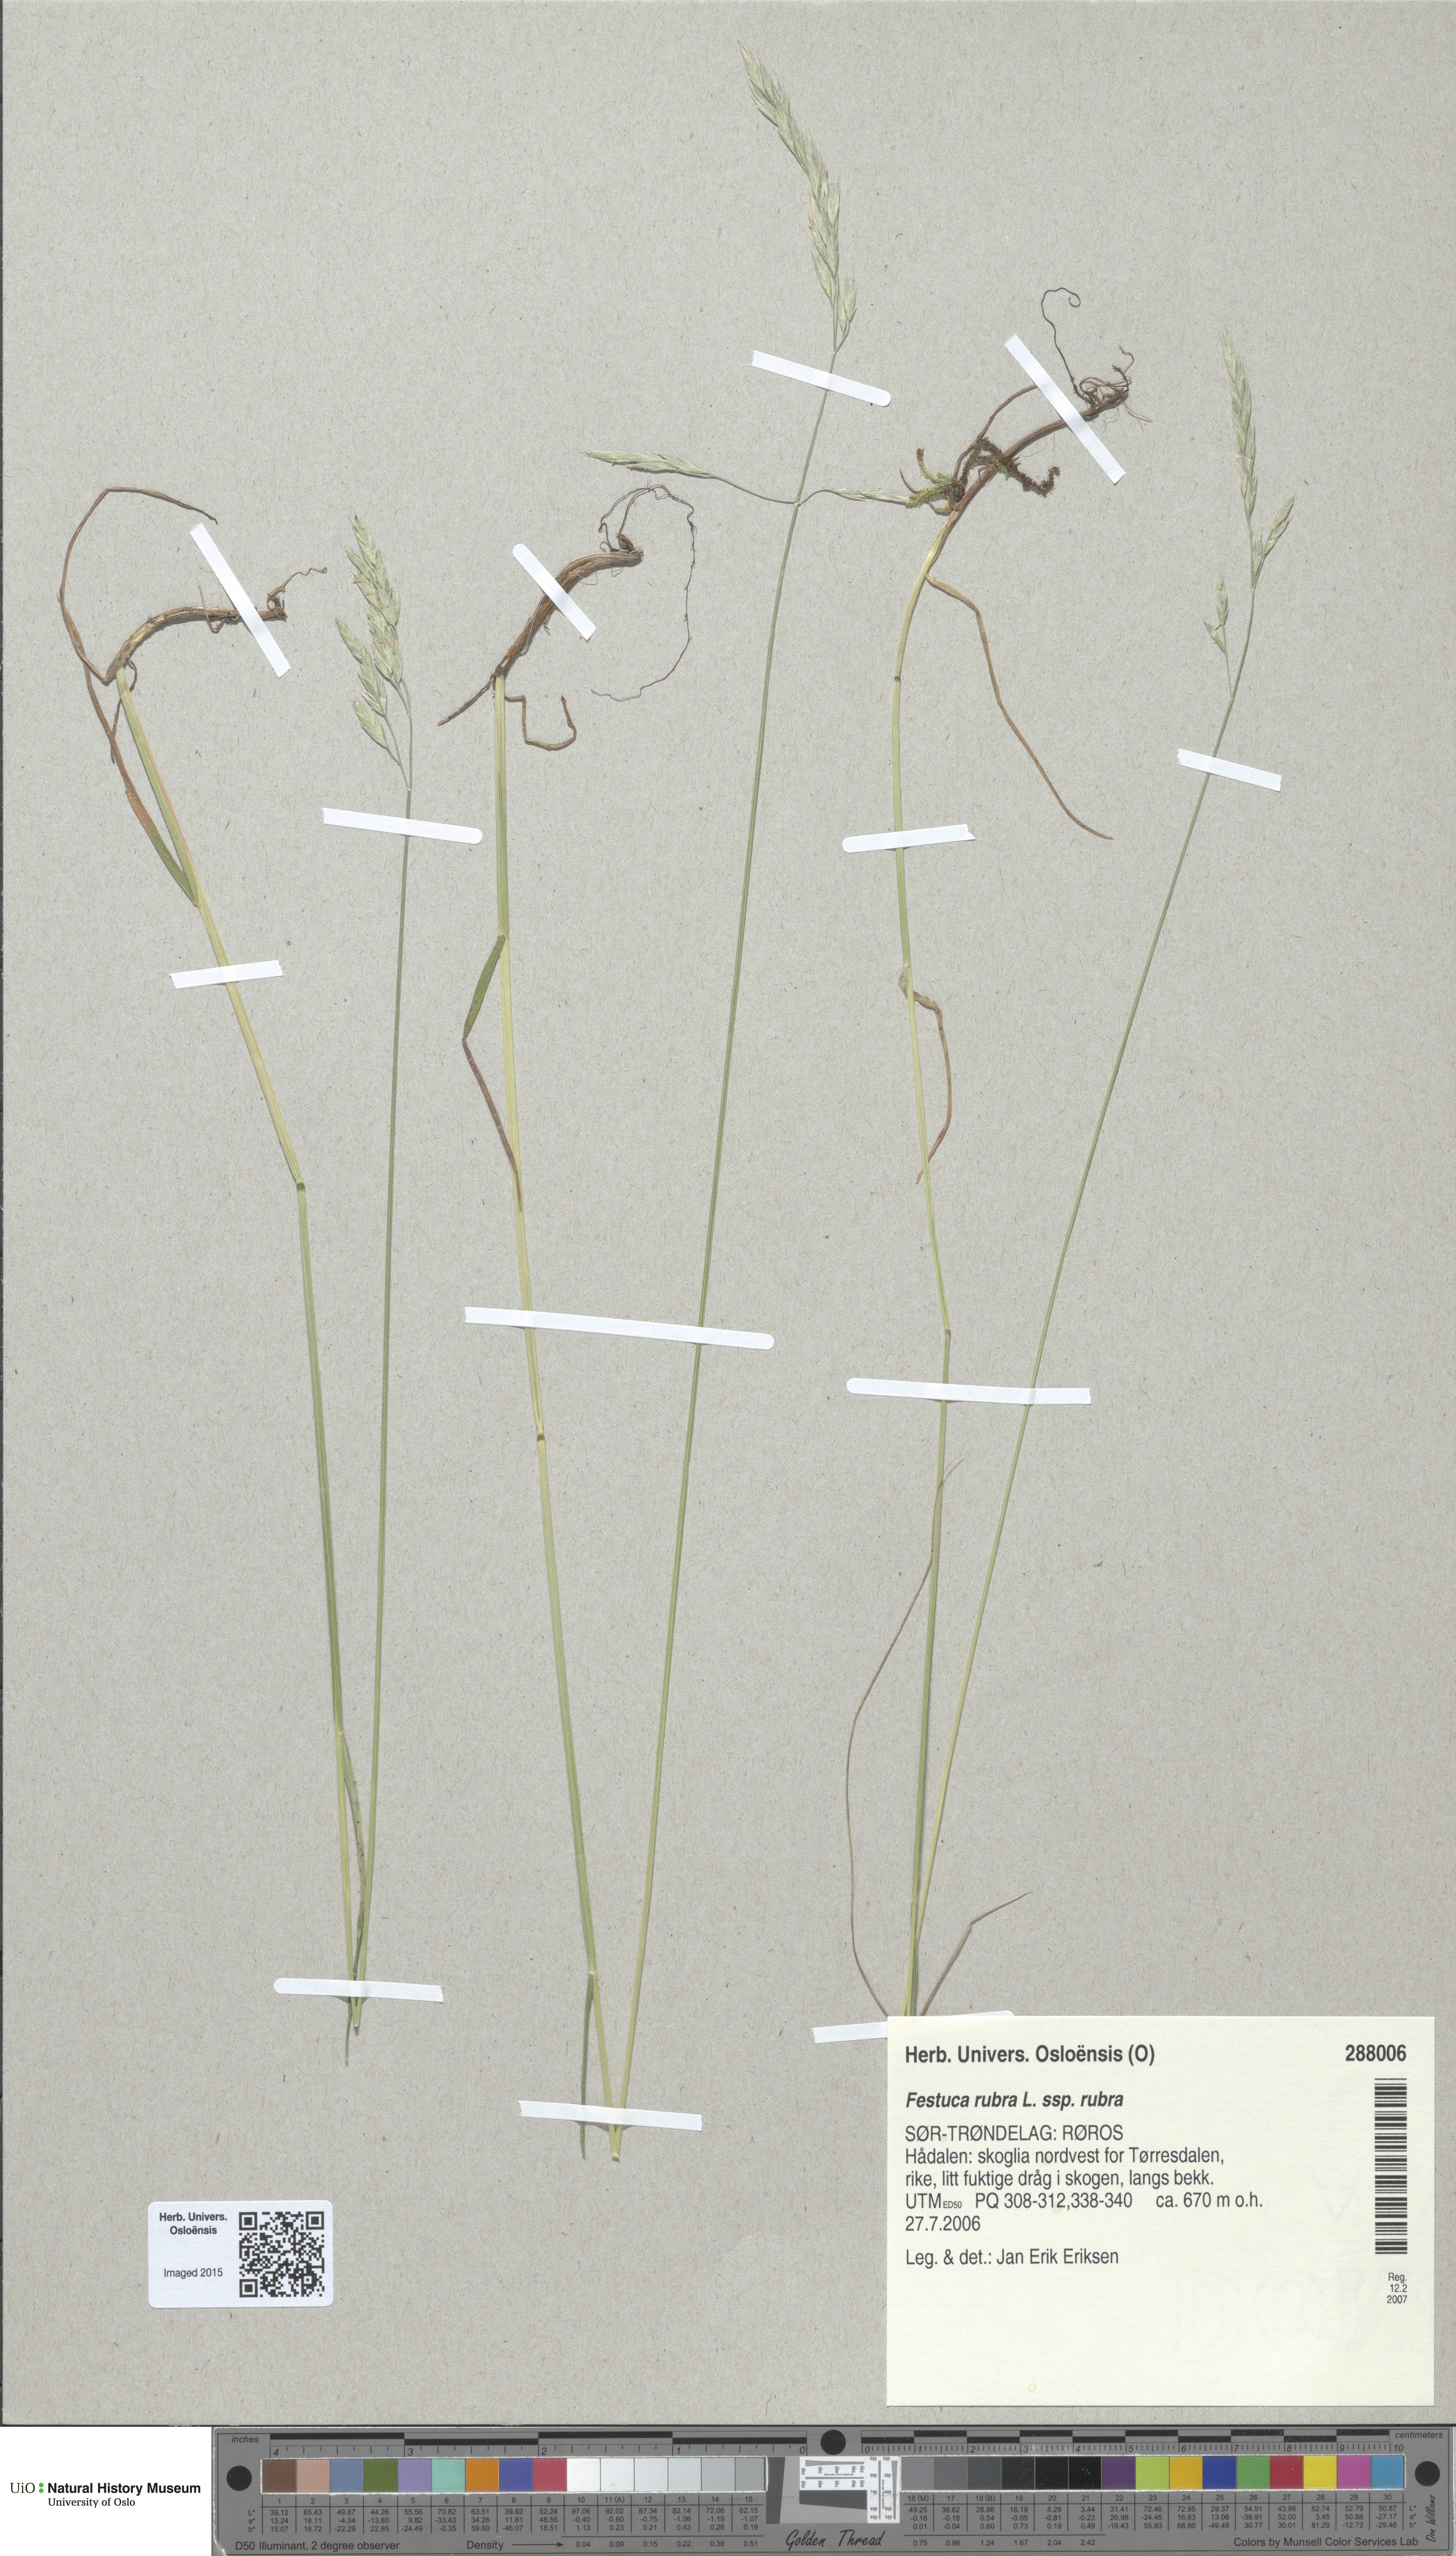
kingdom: Plantae
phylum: Tracheophyta
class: Liliopsida
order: Poales
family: Poaceae
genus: Festuca
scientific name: Festuca rubra
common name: Red fescue
